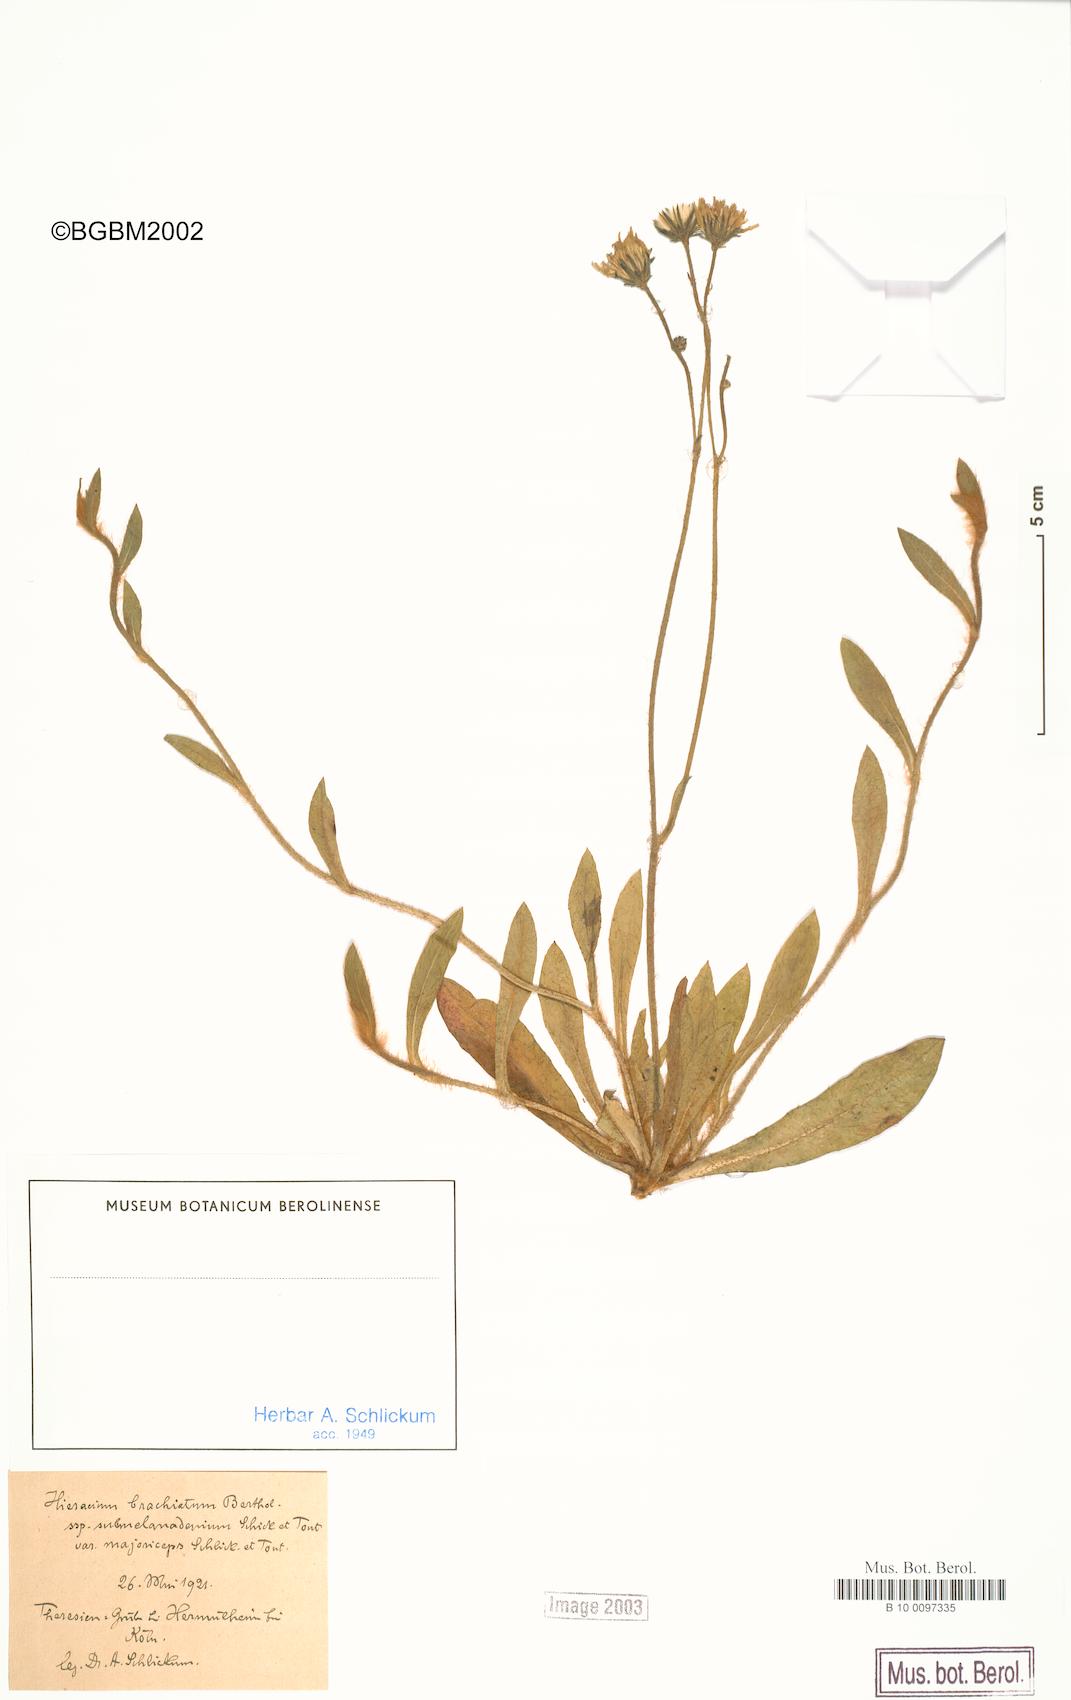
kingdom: Plantae
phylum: Tracheophyta
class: Magnoliopsida
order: Asterales
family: Asteraceae
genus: Pilosella
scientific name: Pilosella acutifolia
